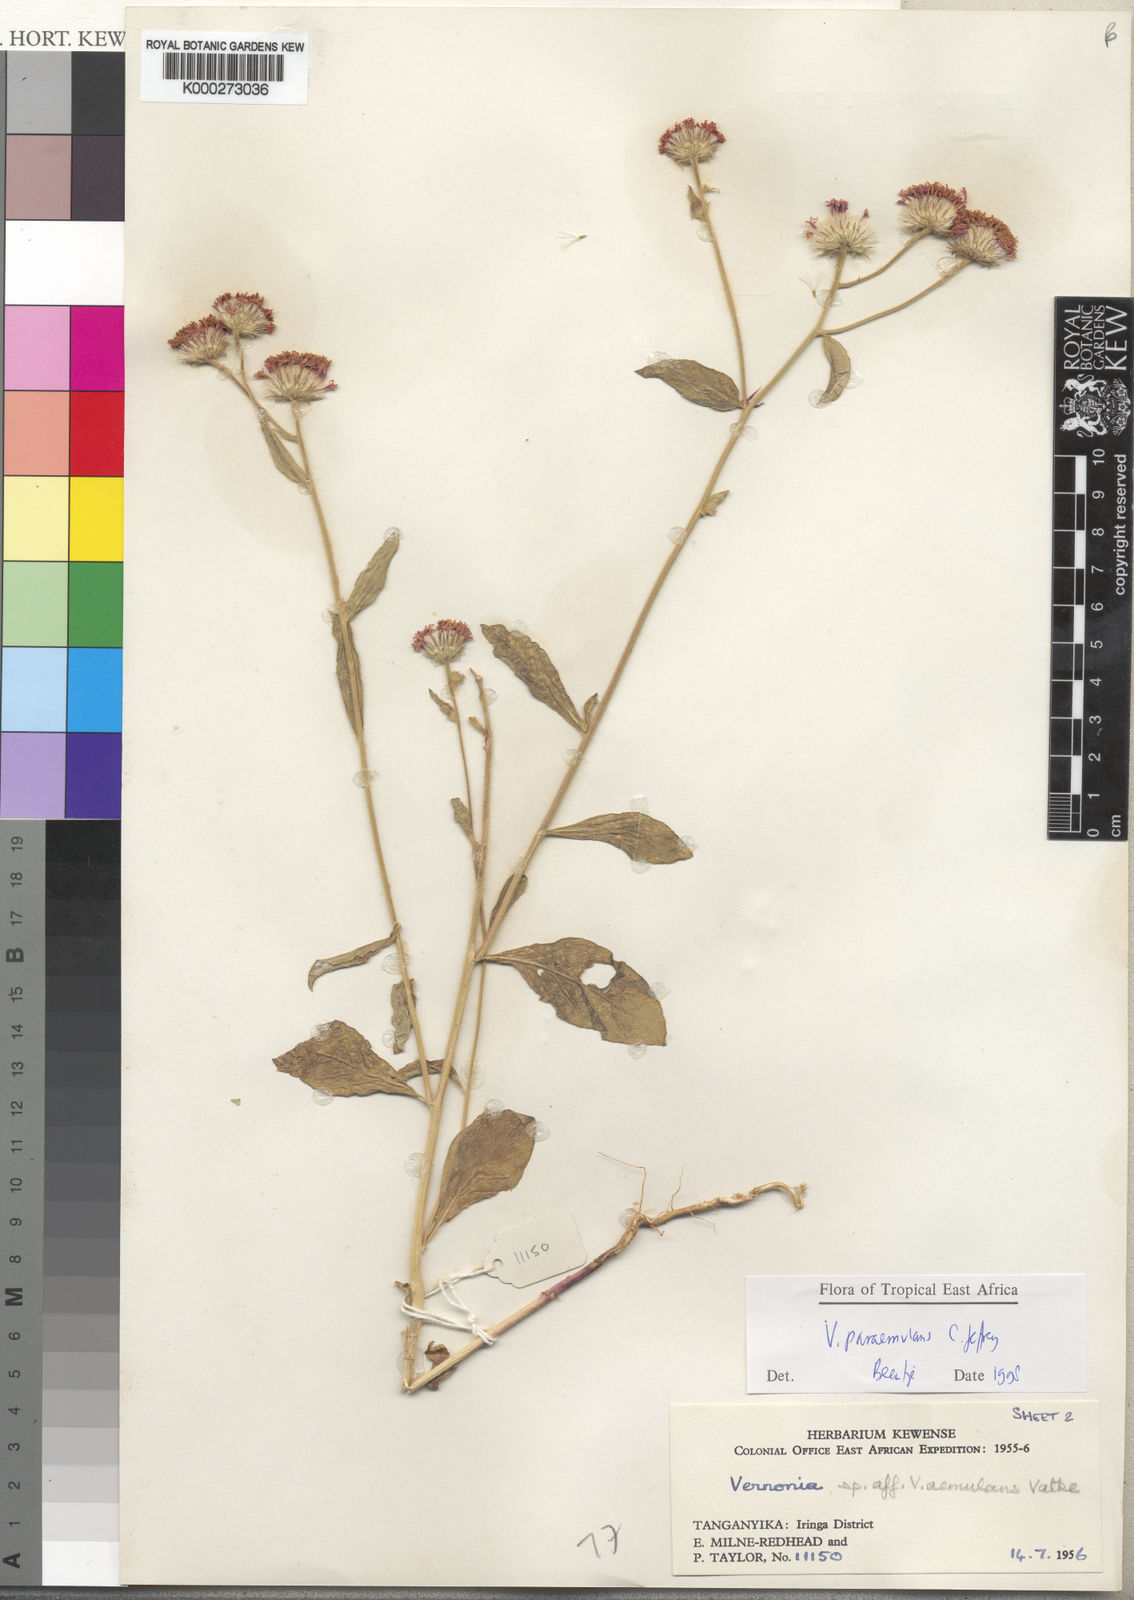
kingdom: Plantae
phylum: Tracheophyta
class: Magnoliopsida
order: Asterales
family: Asteraceae
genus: Vernoniastrum
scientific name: Vernoniastrum paraemulans
